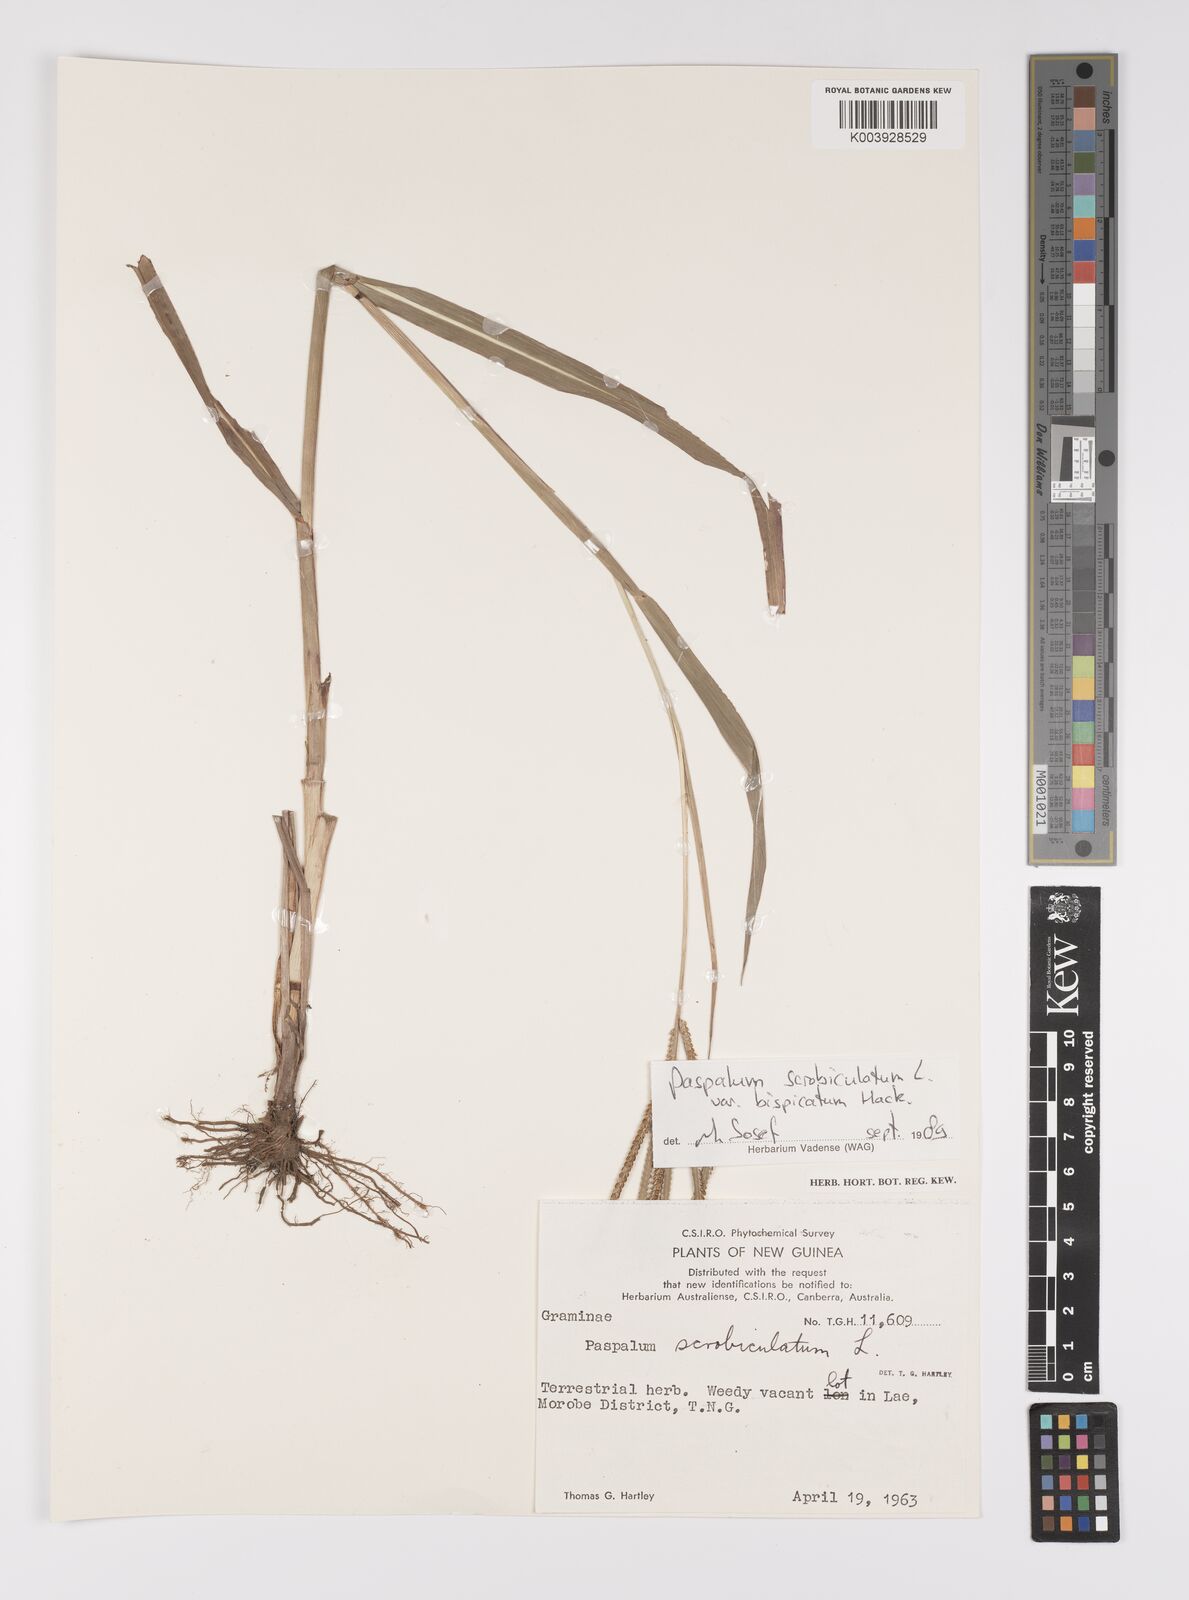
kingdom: Plantae
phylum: Tracheophyta
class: Liliopsida
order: Poales
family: Poaceae
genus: Paspalum
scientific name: Paspalum scrobiculatum
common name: Kodo millet
